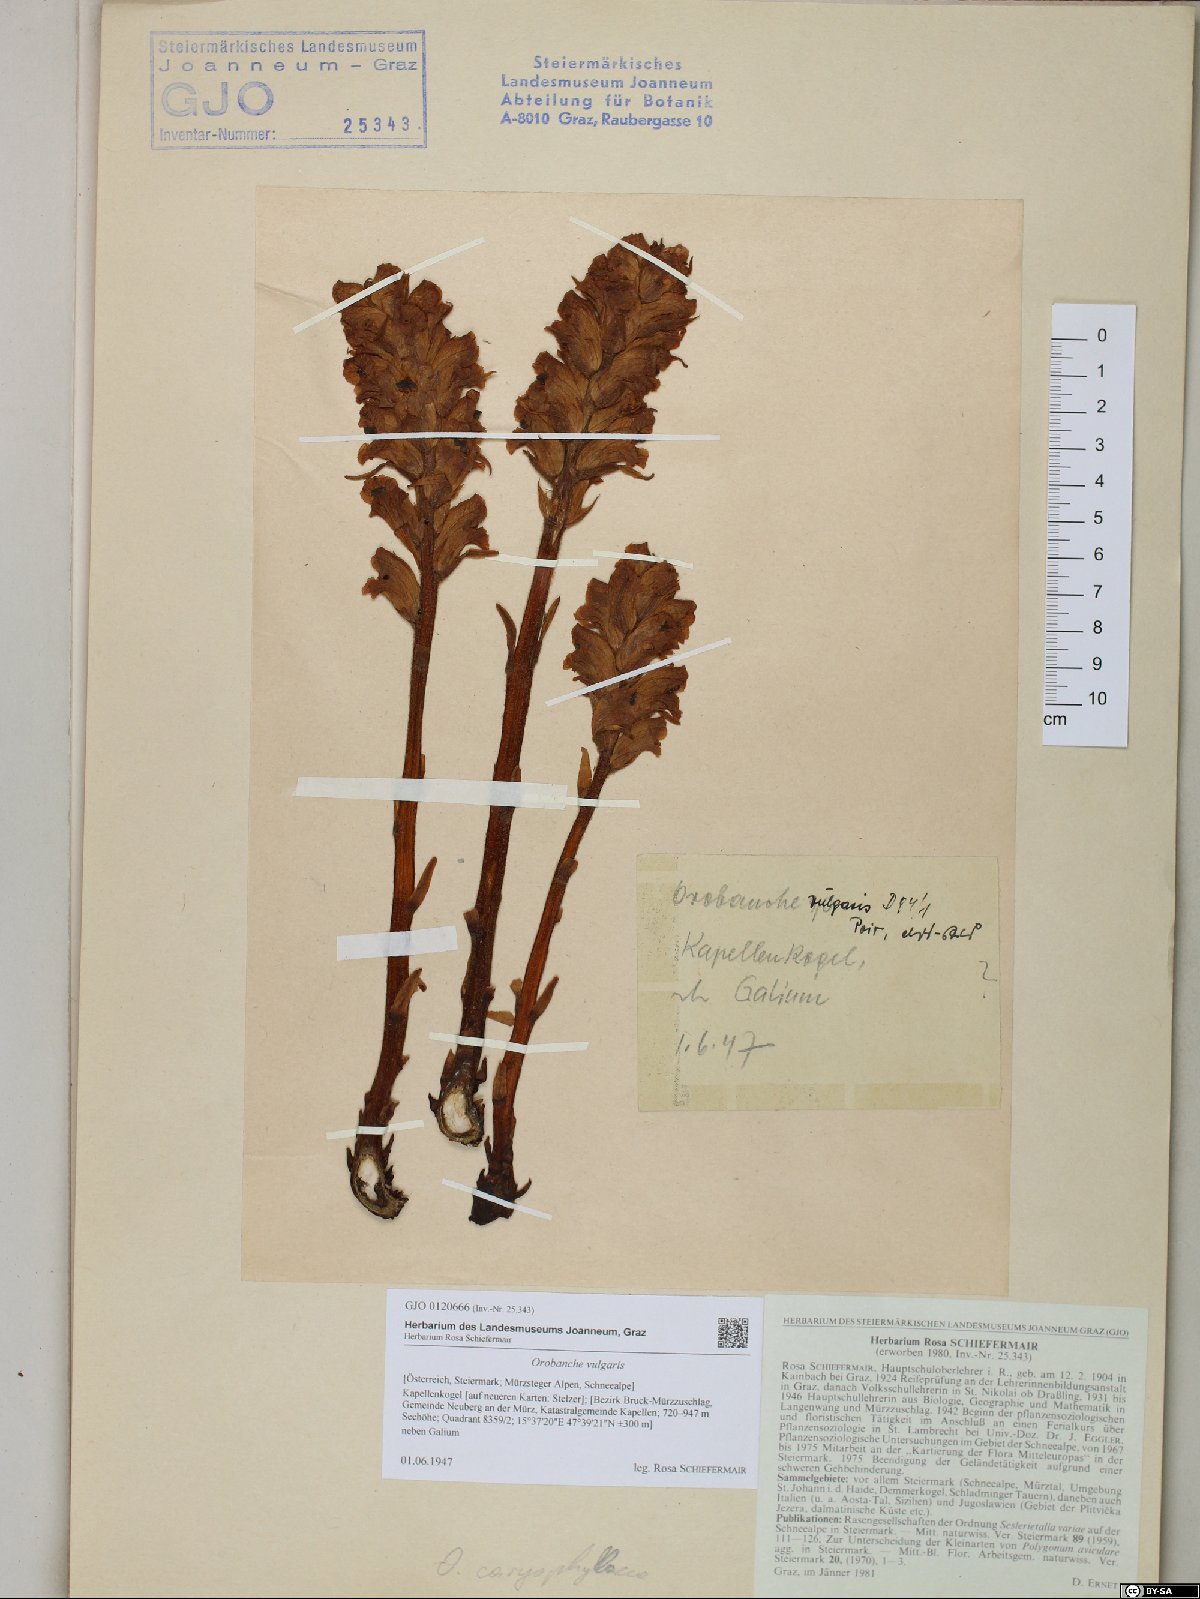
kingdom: Plantae
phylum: Tracheophyta
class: Magnoliopsida
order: Lamiales
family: Orobanchaceae
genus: Orobanche
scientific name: Orobanche caryophyllacea
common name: Bedstraw broomrape
